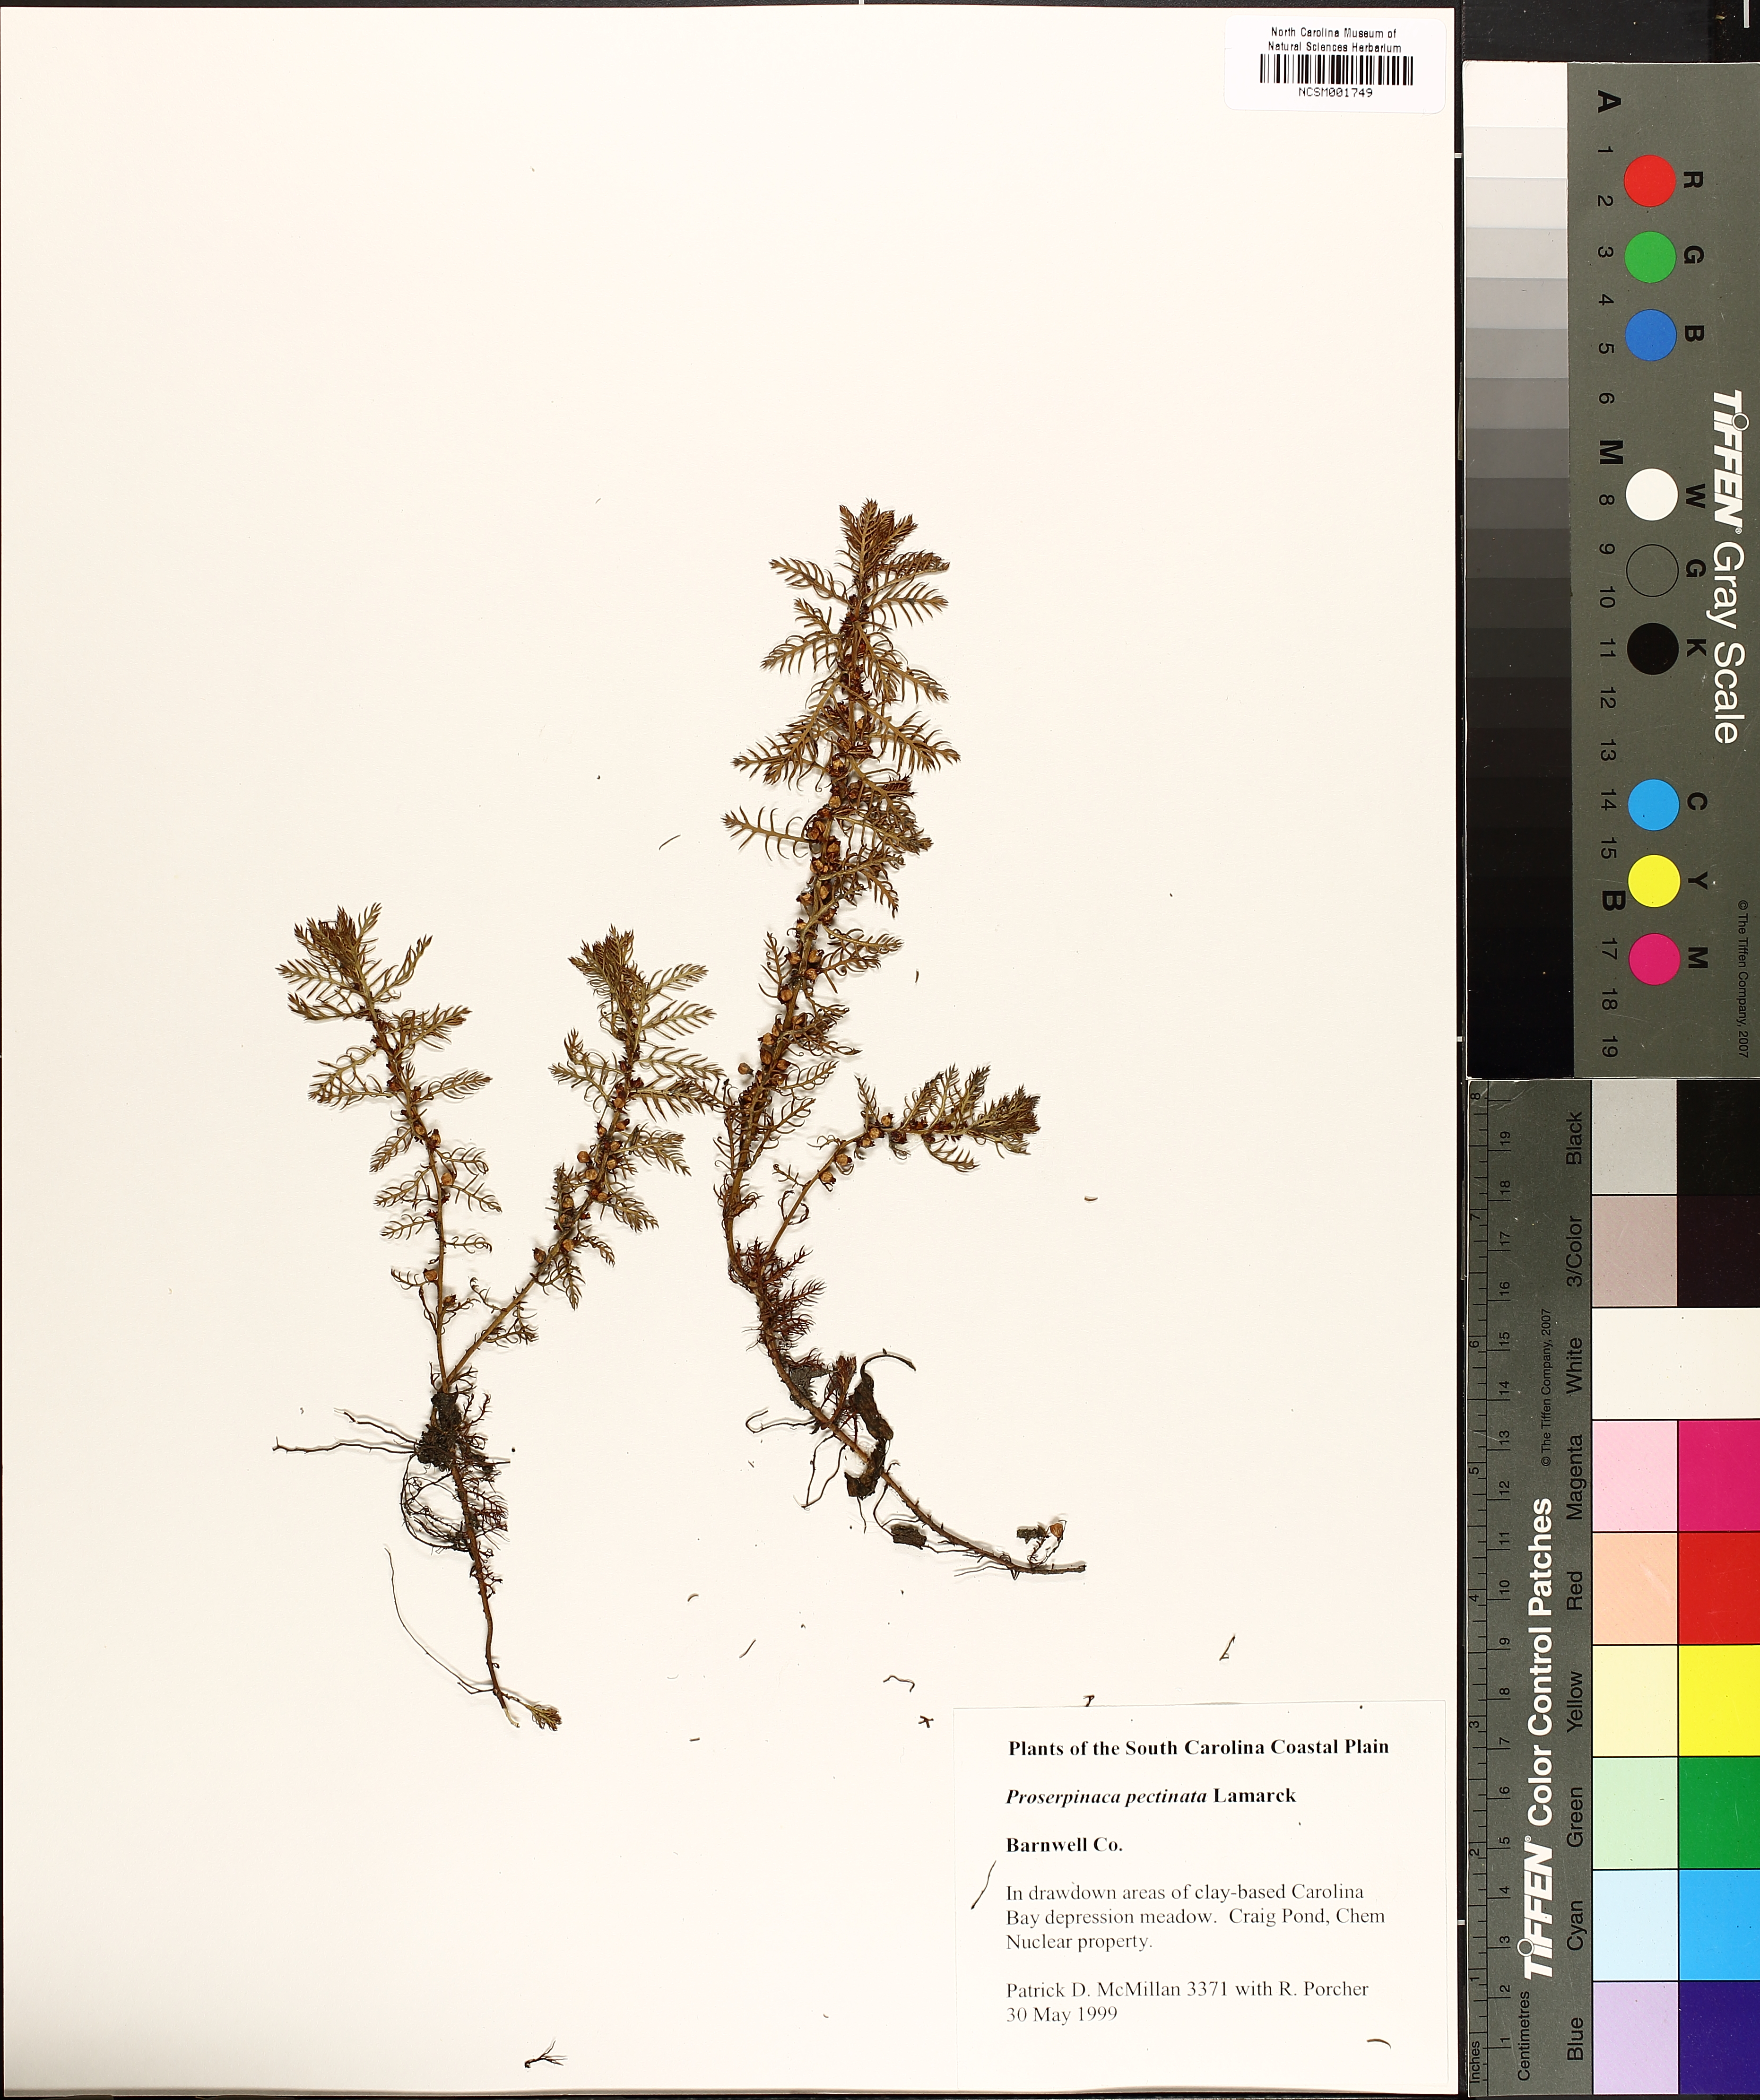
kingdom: Plantae
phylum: Tracheophyta
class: Magnoliopsida
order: Saxifragales
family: Haloragaceae
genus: Proserpinaca
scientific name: Proserpinaca pectinata
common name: Comb-leaved mermaidweed
